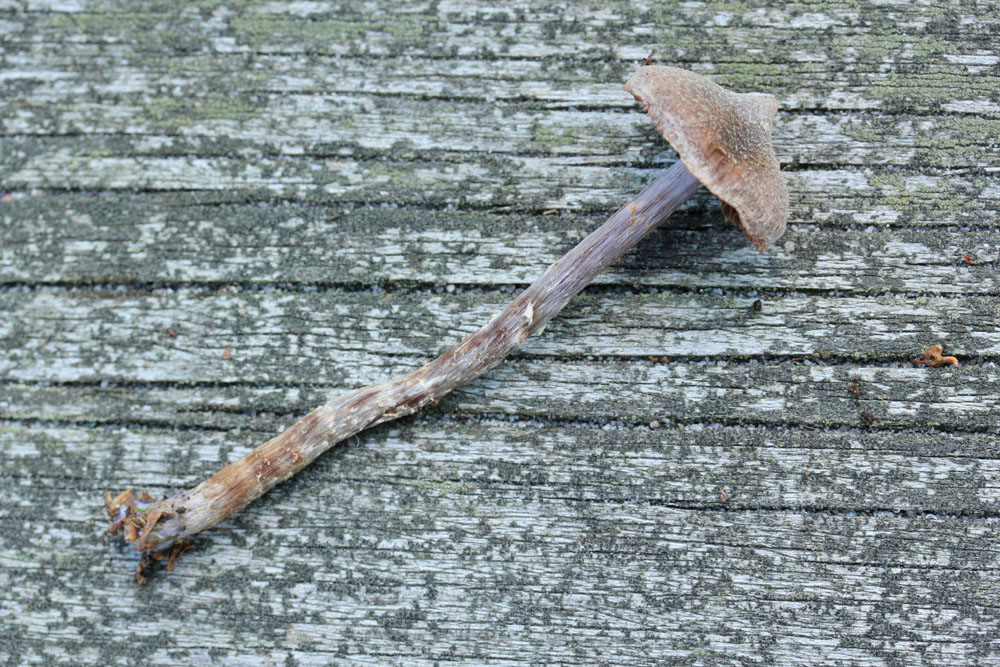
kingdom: Fungi
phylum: Basidiomycota
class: Agaricomycetes
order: Agaricales
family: Cortinariaceae
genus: Cortinarius
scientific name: Cortinarius
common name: pelargonie-slørhat
